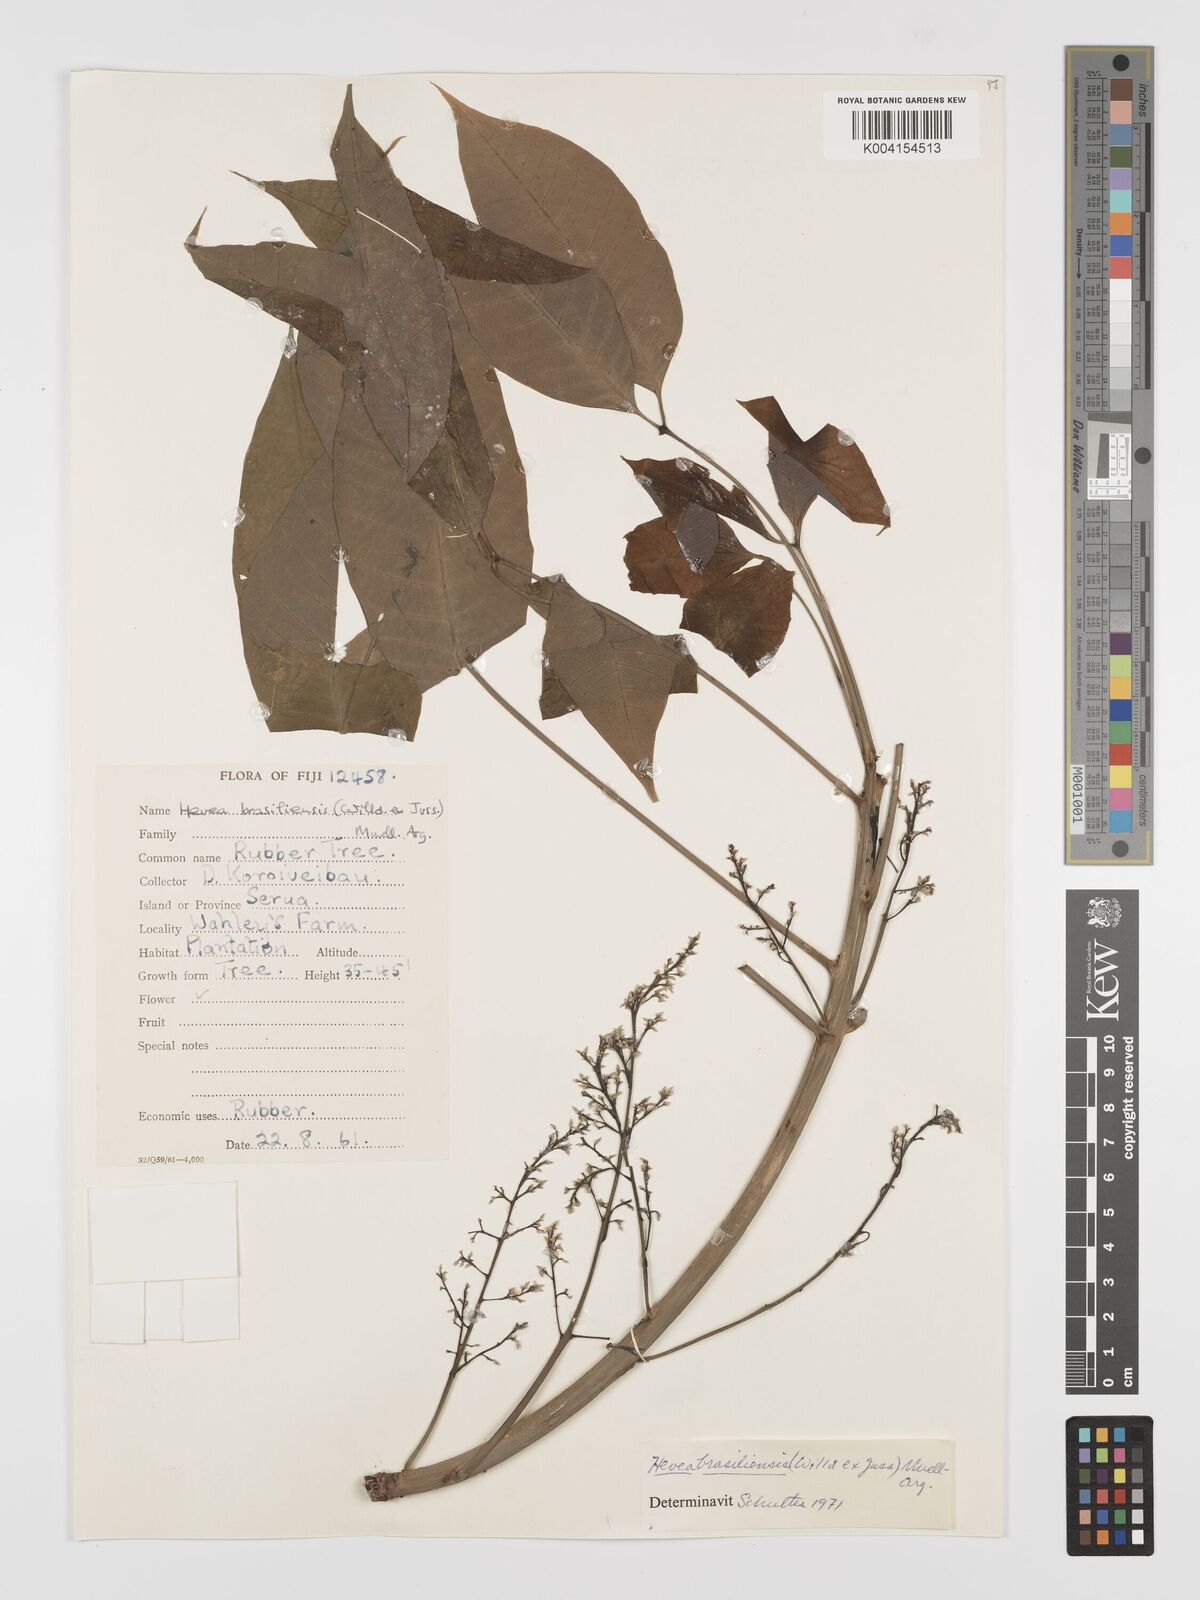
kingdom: Plantae
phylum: Tracheophyta
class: Magnoliopsida
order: Malpighiales
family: Euphorbiaceae
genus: Hevea
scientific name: Hevea brasiliensis
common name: Natural rubber
